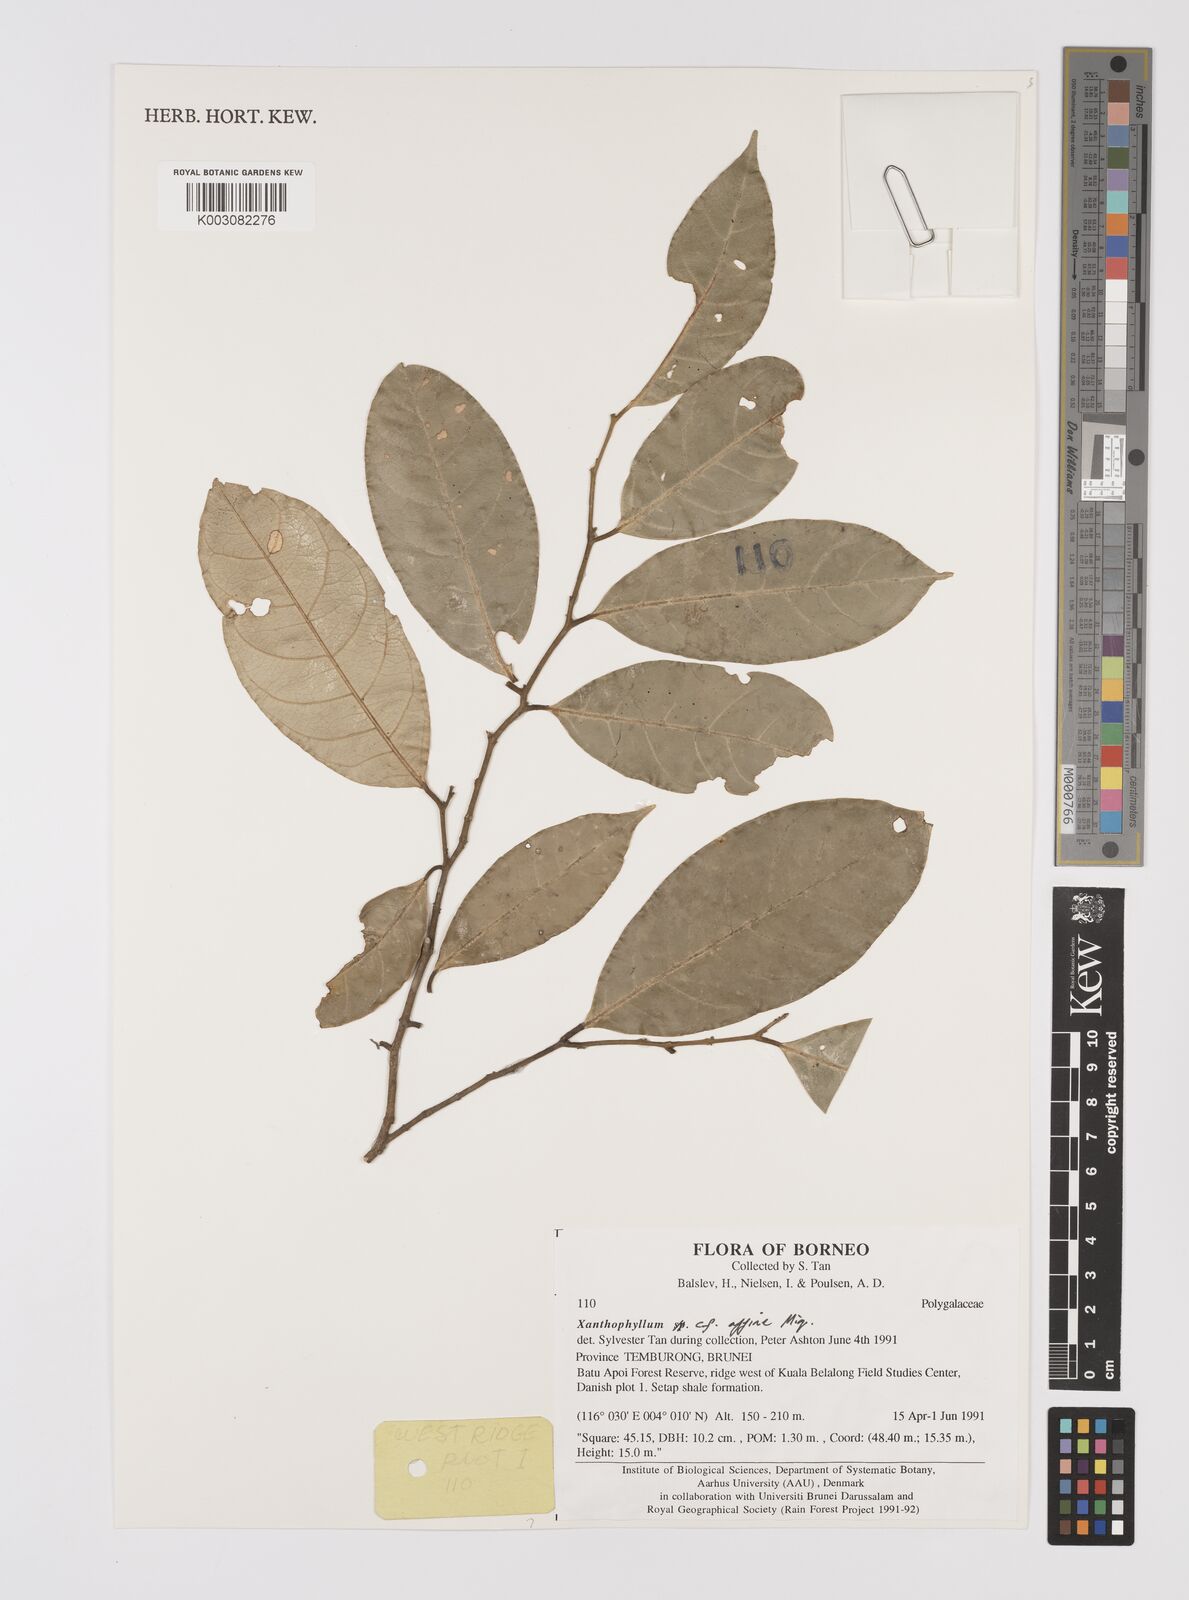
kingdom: Plantae
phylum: Tracheophyta
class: Magnoliopsida
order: Fabales
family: Polygalaceae
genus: Xanthophyllum
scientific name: Xanthophyllum flavescens
